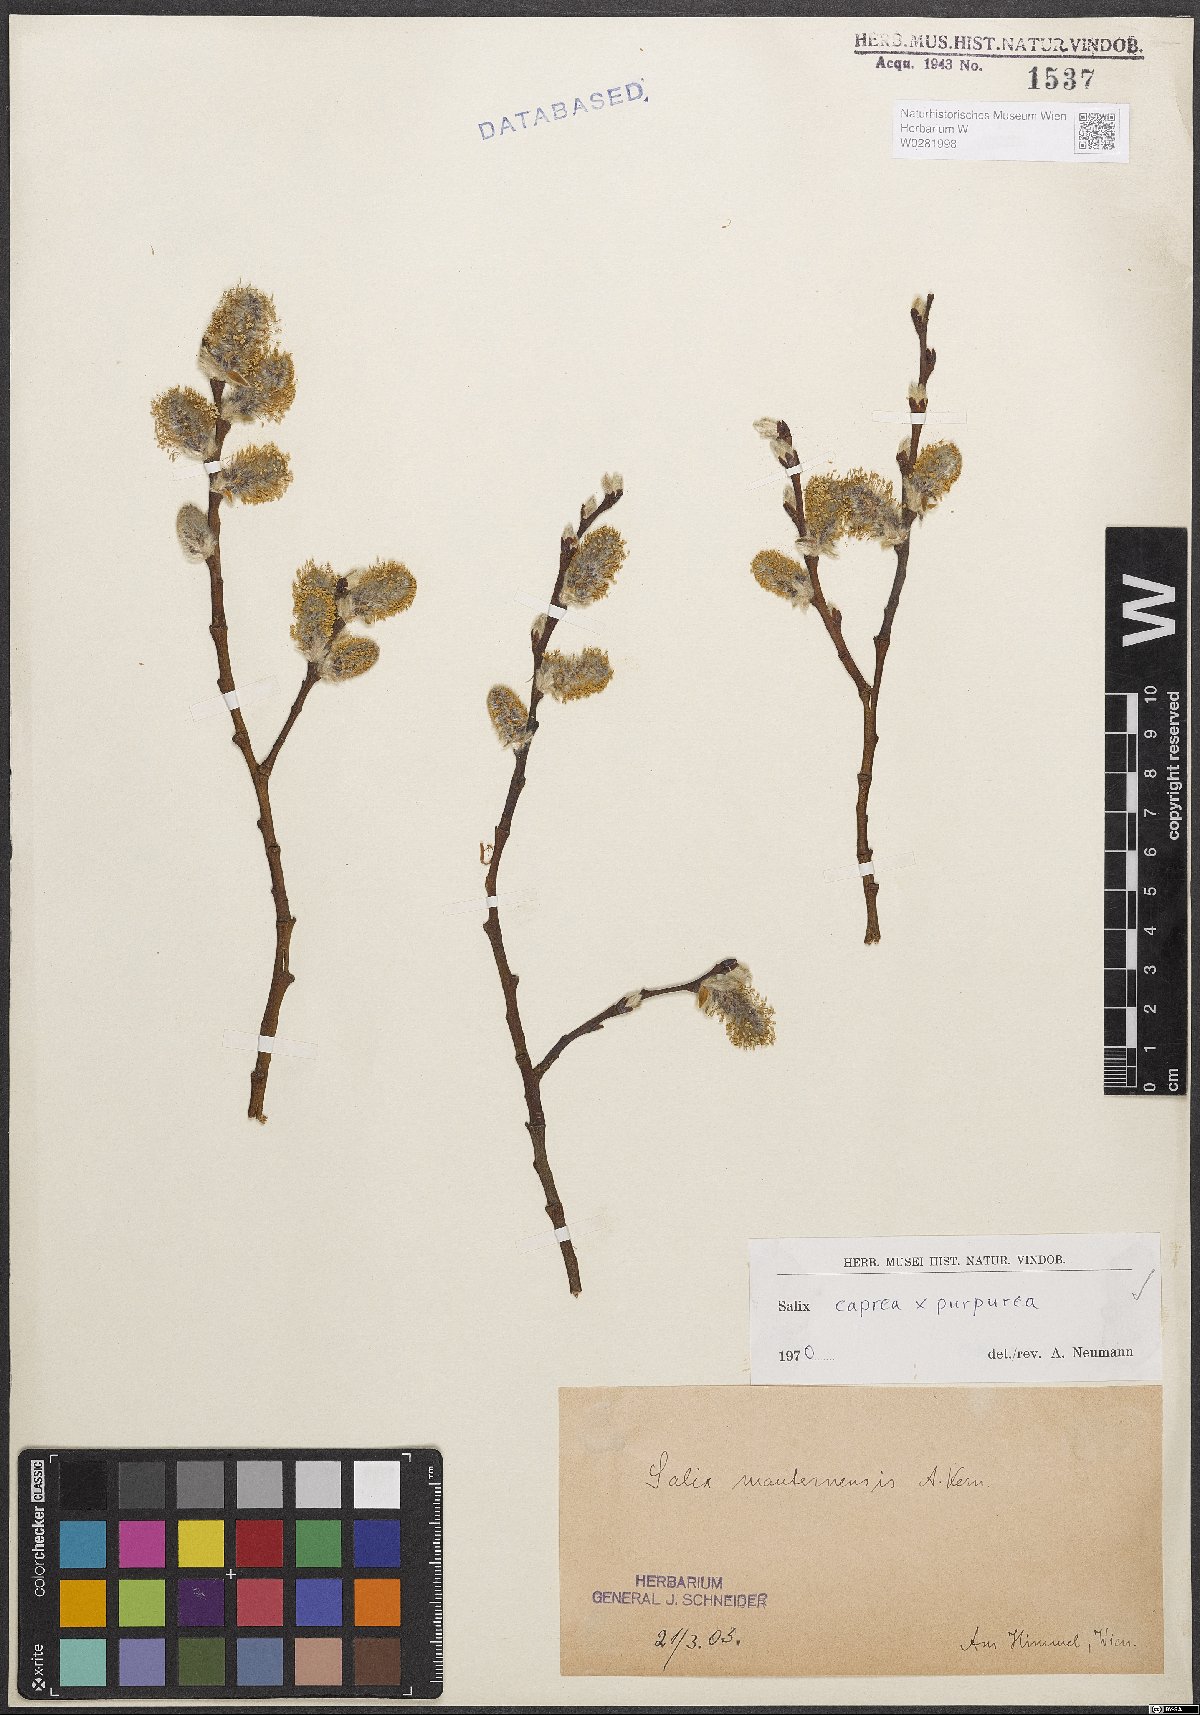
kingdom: Plantae
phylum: Tracheophyta
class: Magnoliopsida
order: Malpighiales
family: Salicaceae
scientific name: Salicaceae
